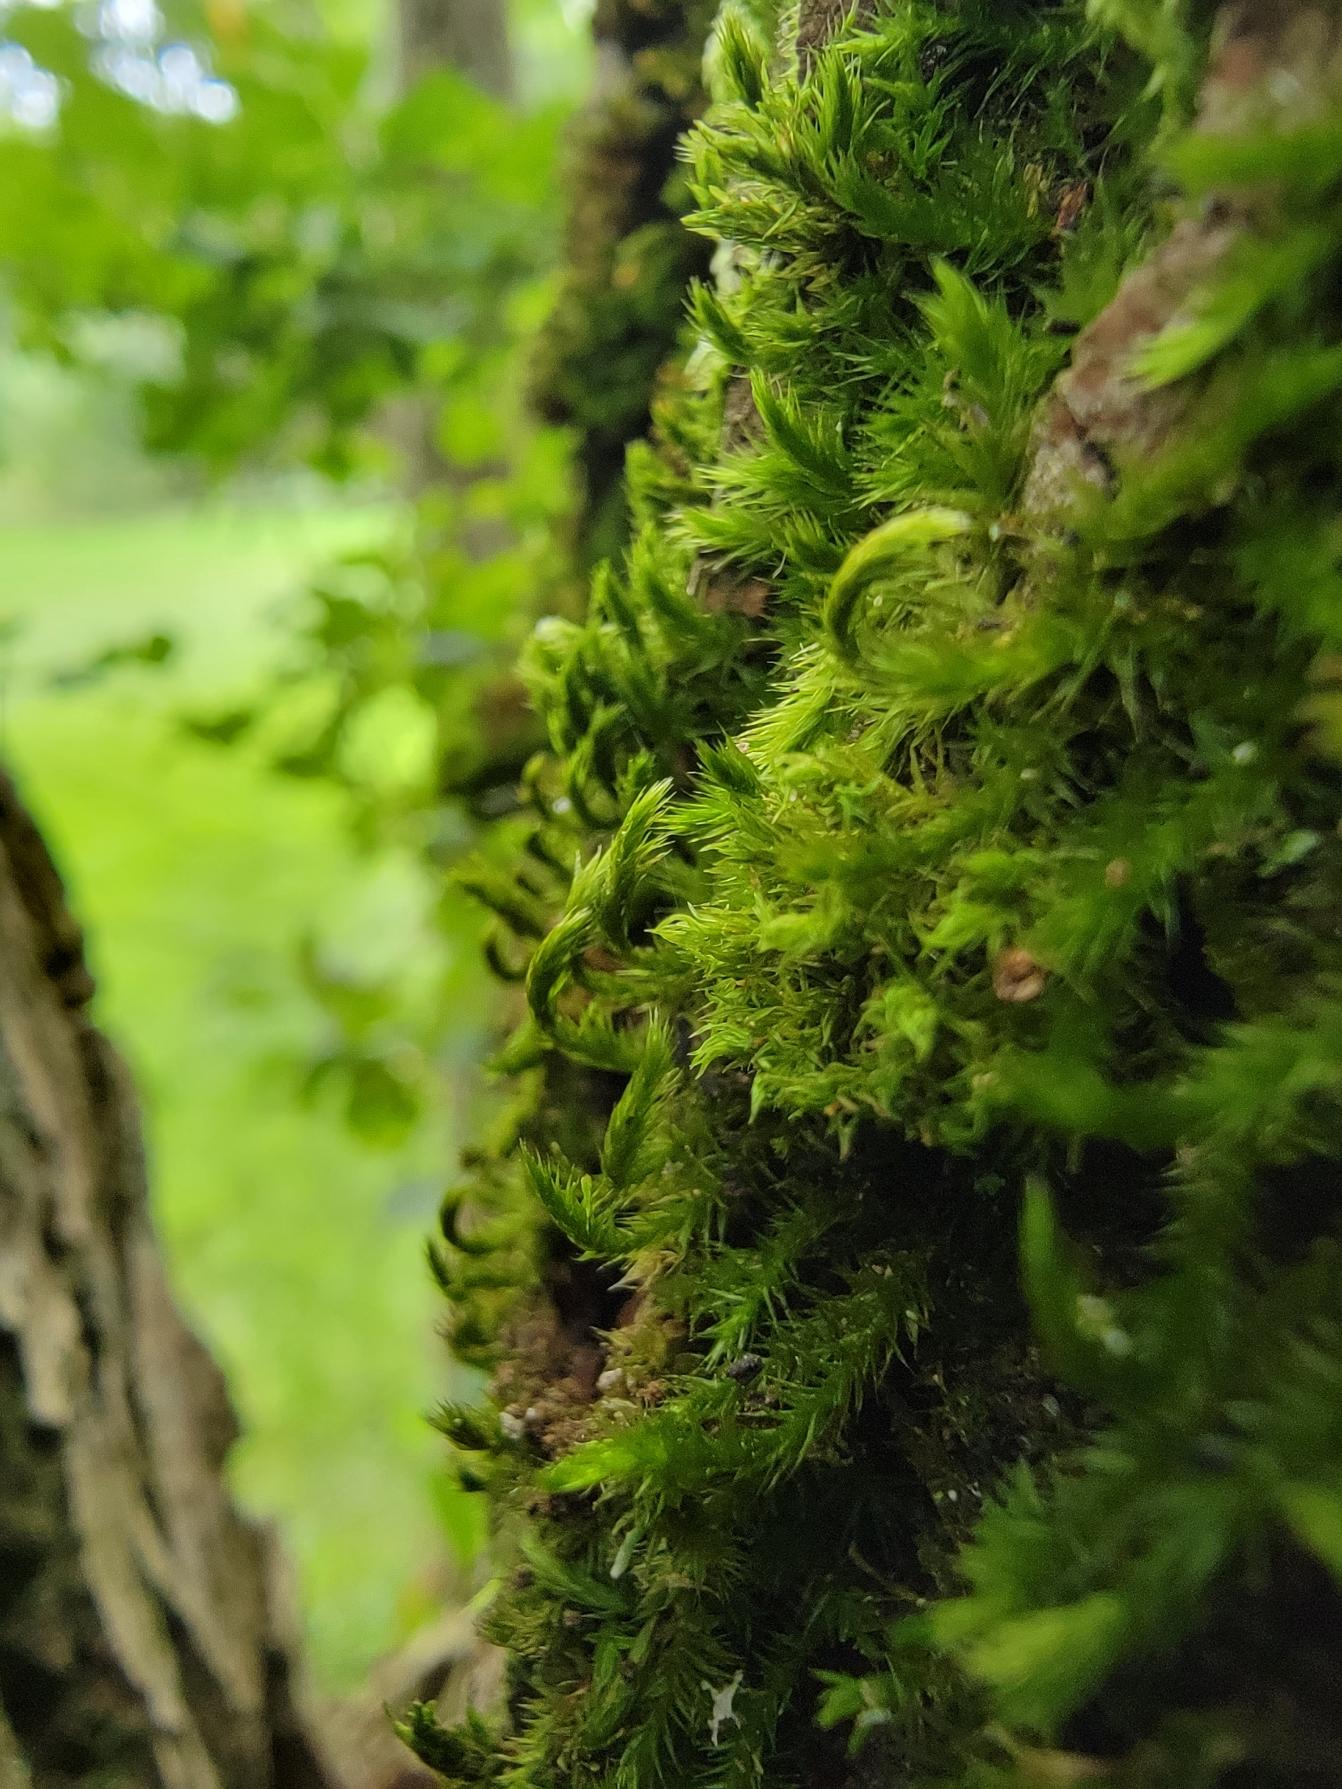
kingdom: Plantae
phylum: Bryophyta
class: Bryopsida
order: Hypnales
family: Leucodontaceae
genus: Leucodon
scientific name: Leucodon sciuroides
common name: Egernhale-buemos
